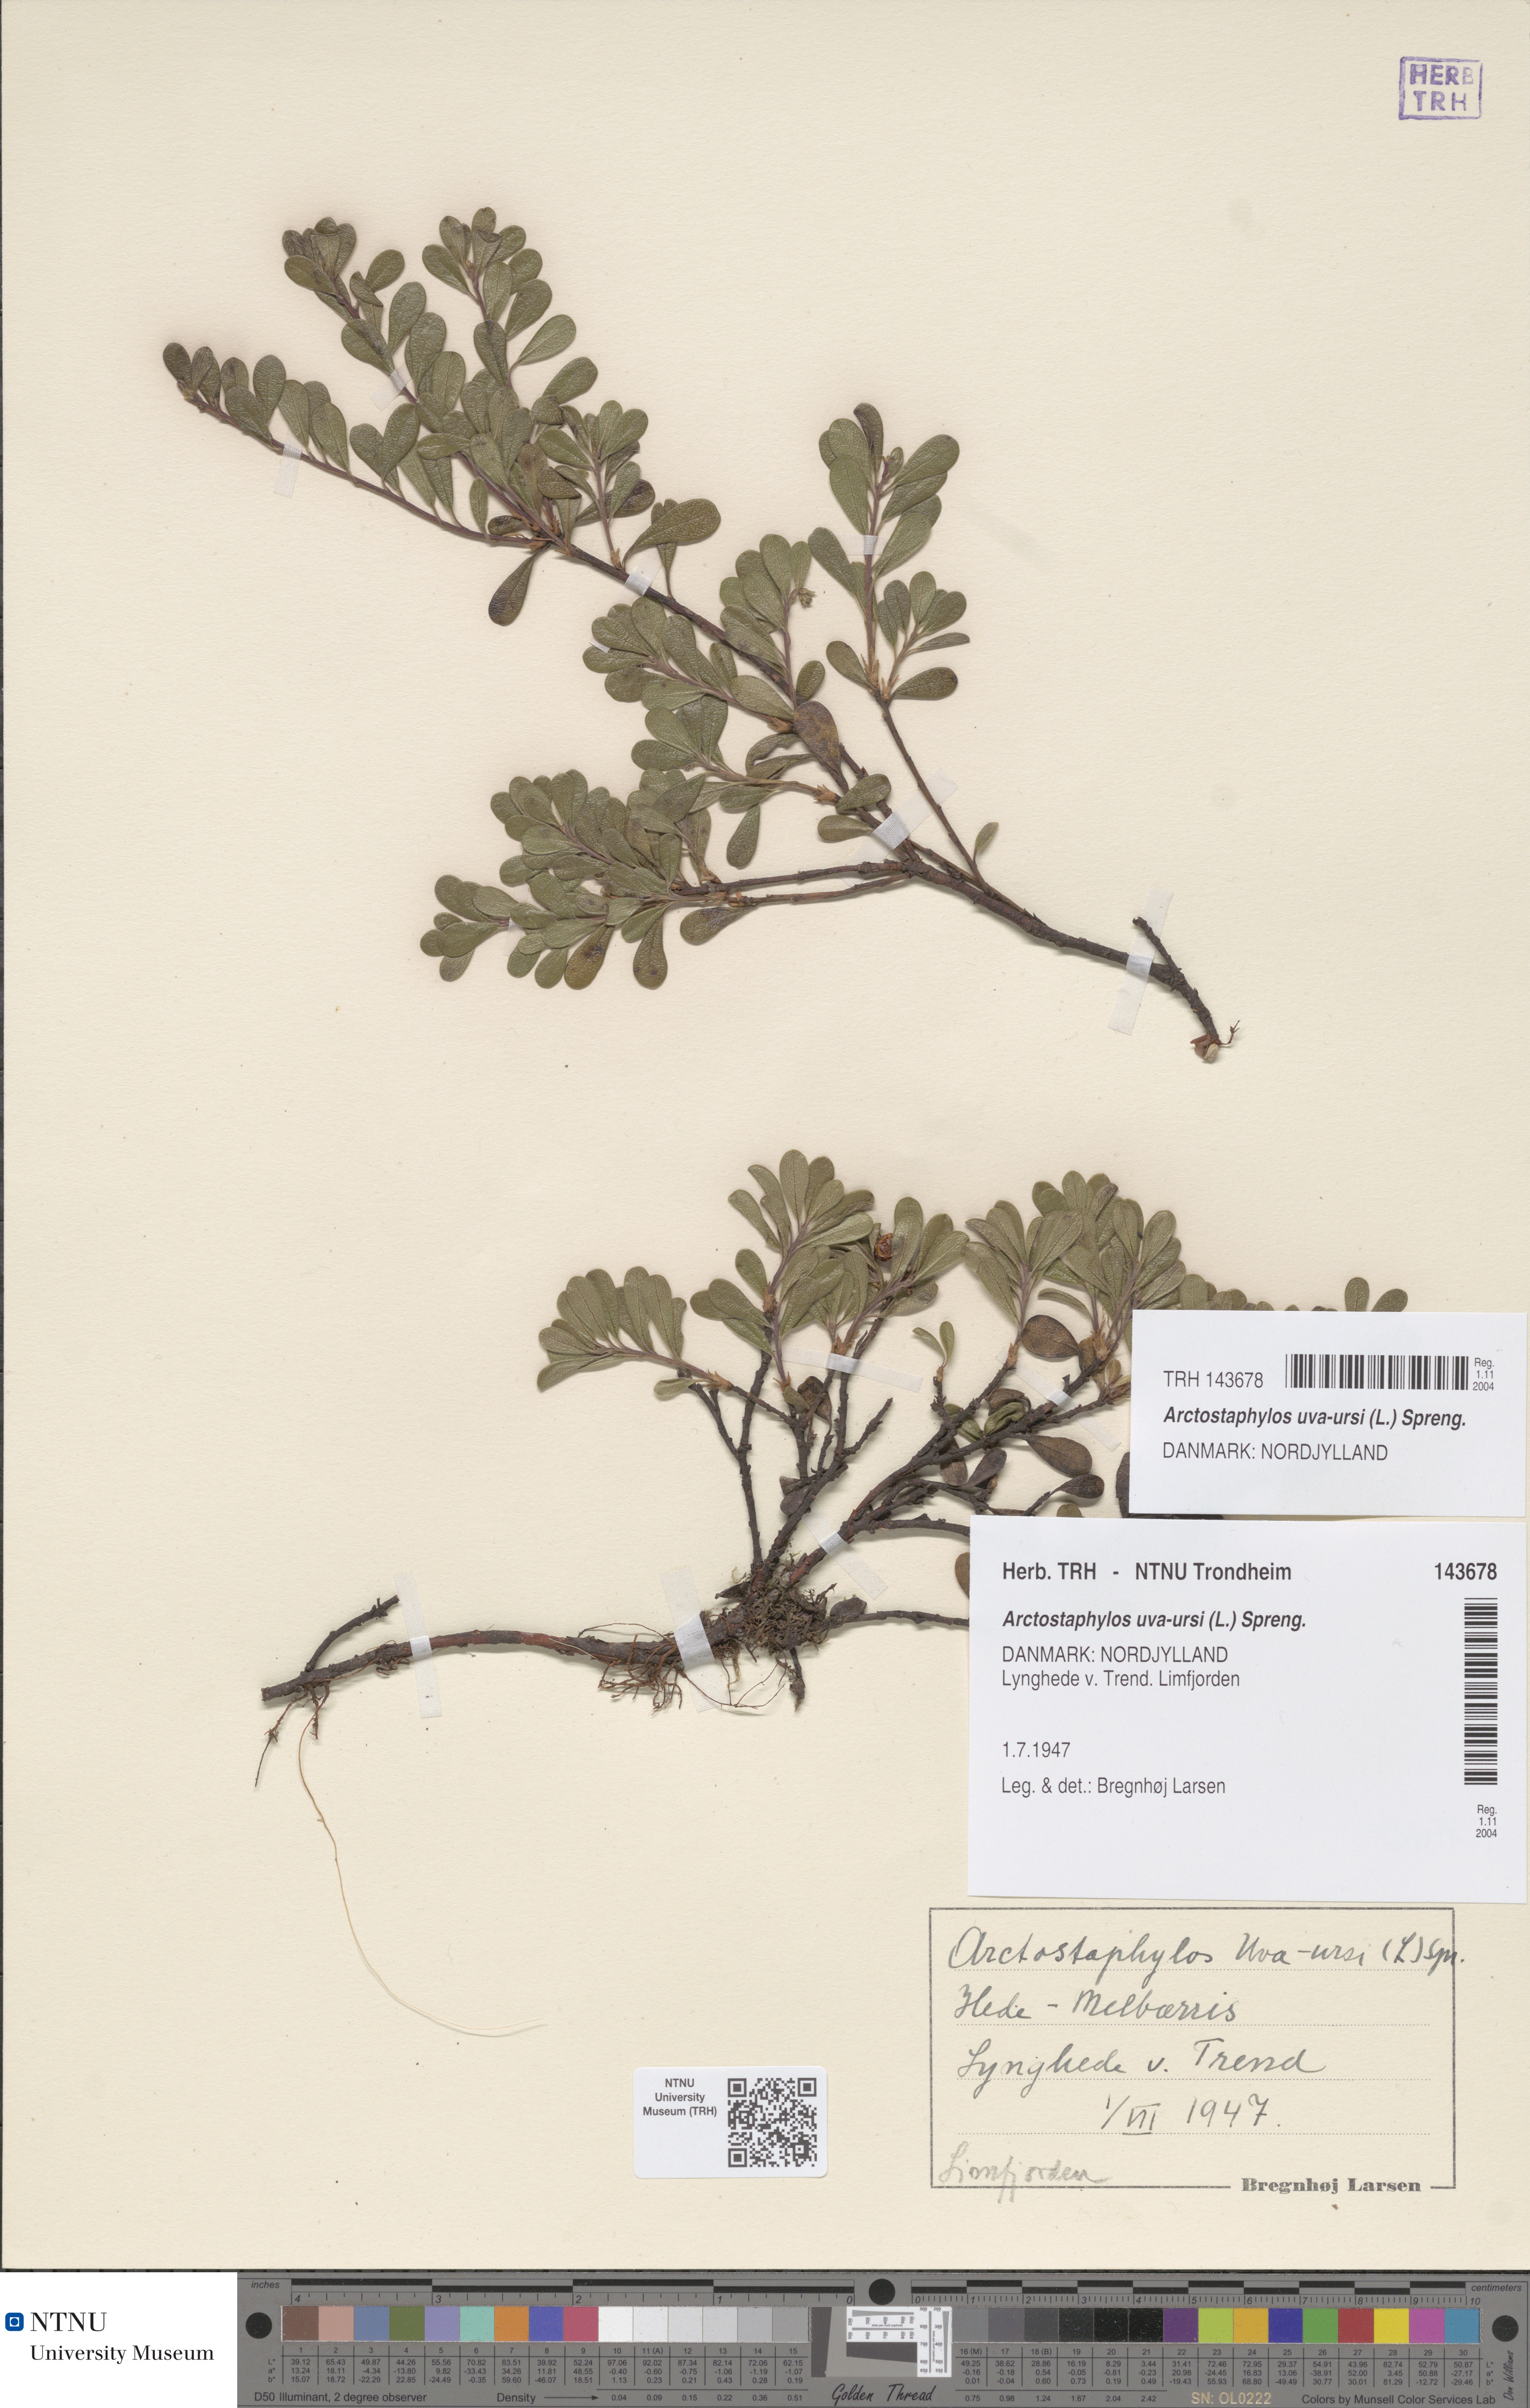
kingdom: Plantae
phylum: Tracheophyta
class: Magnoliopsida
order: Ericales
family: Ericaceae
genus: Arctostaphylos
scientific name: Arctostaphylos uva-ursi
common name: Bearberry
